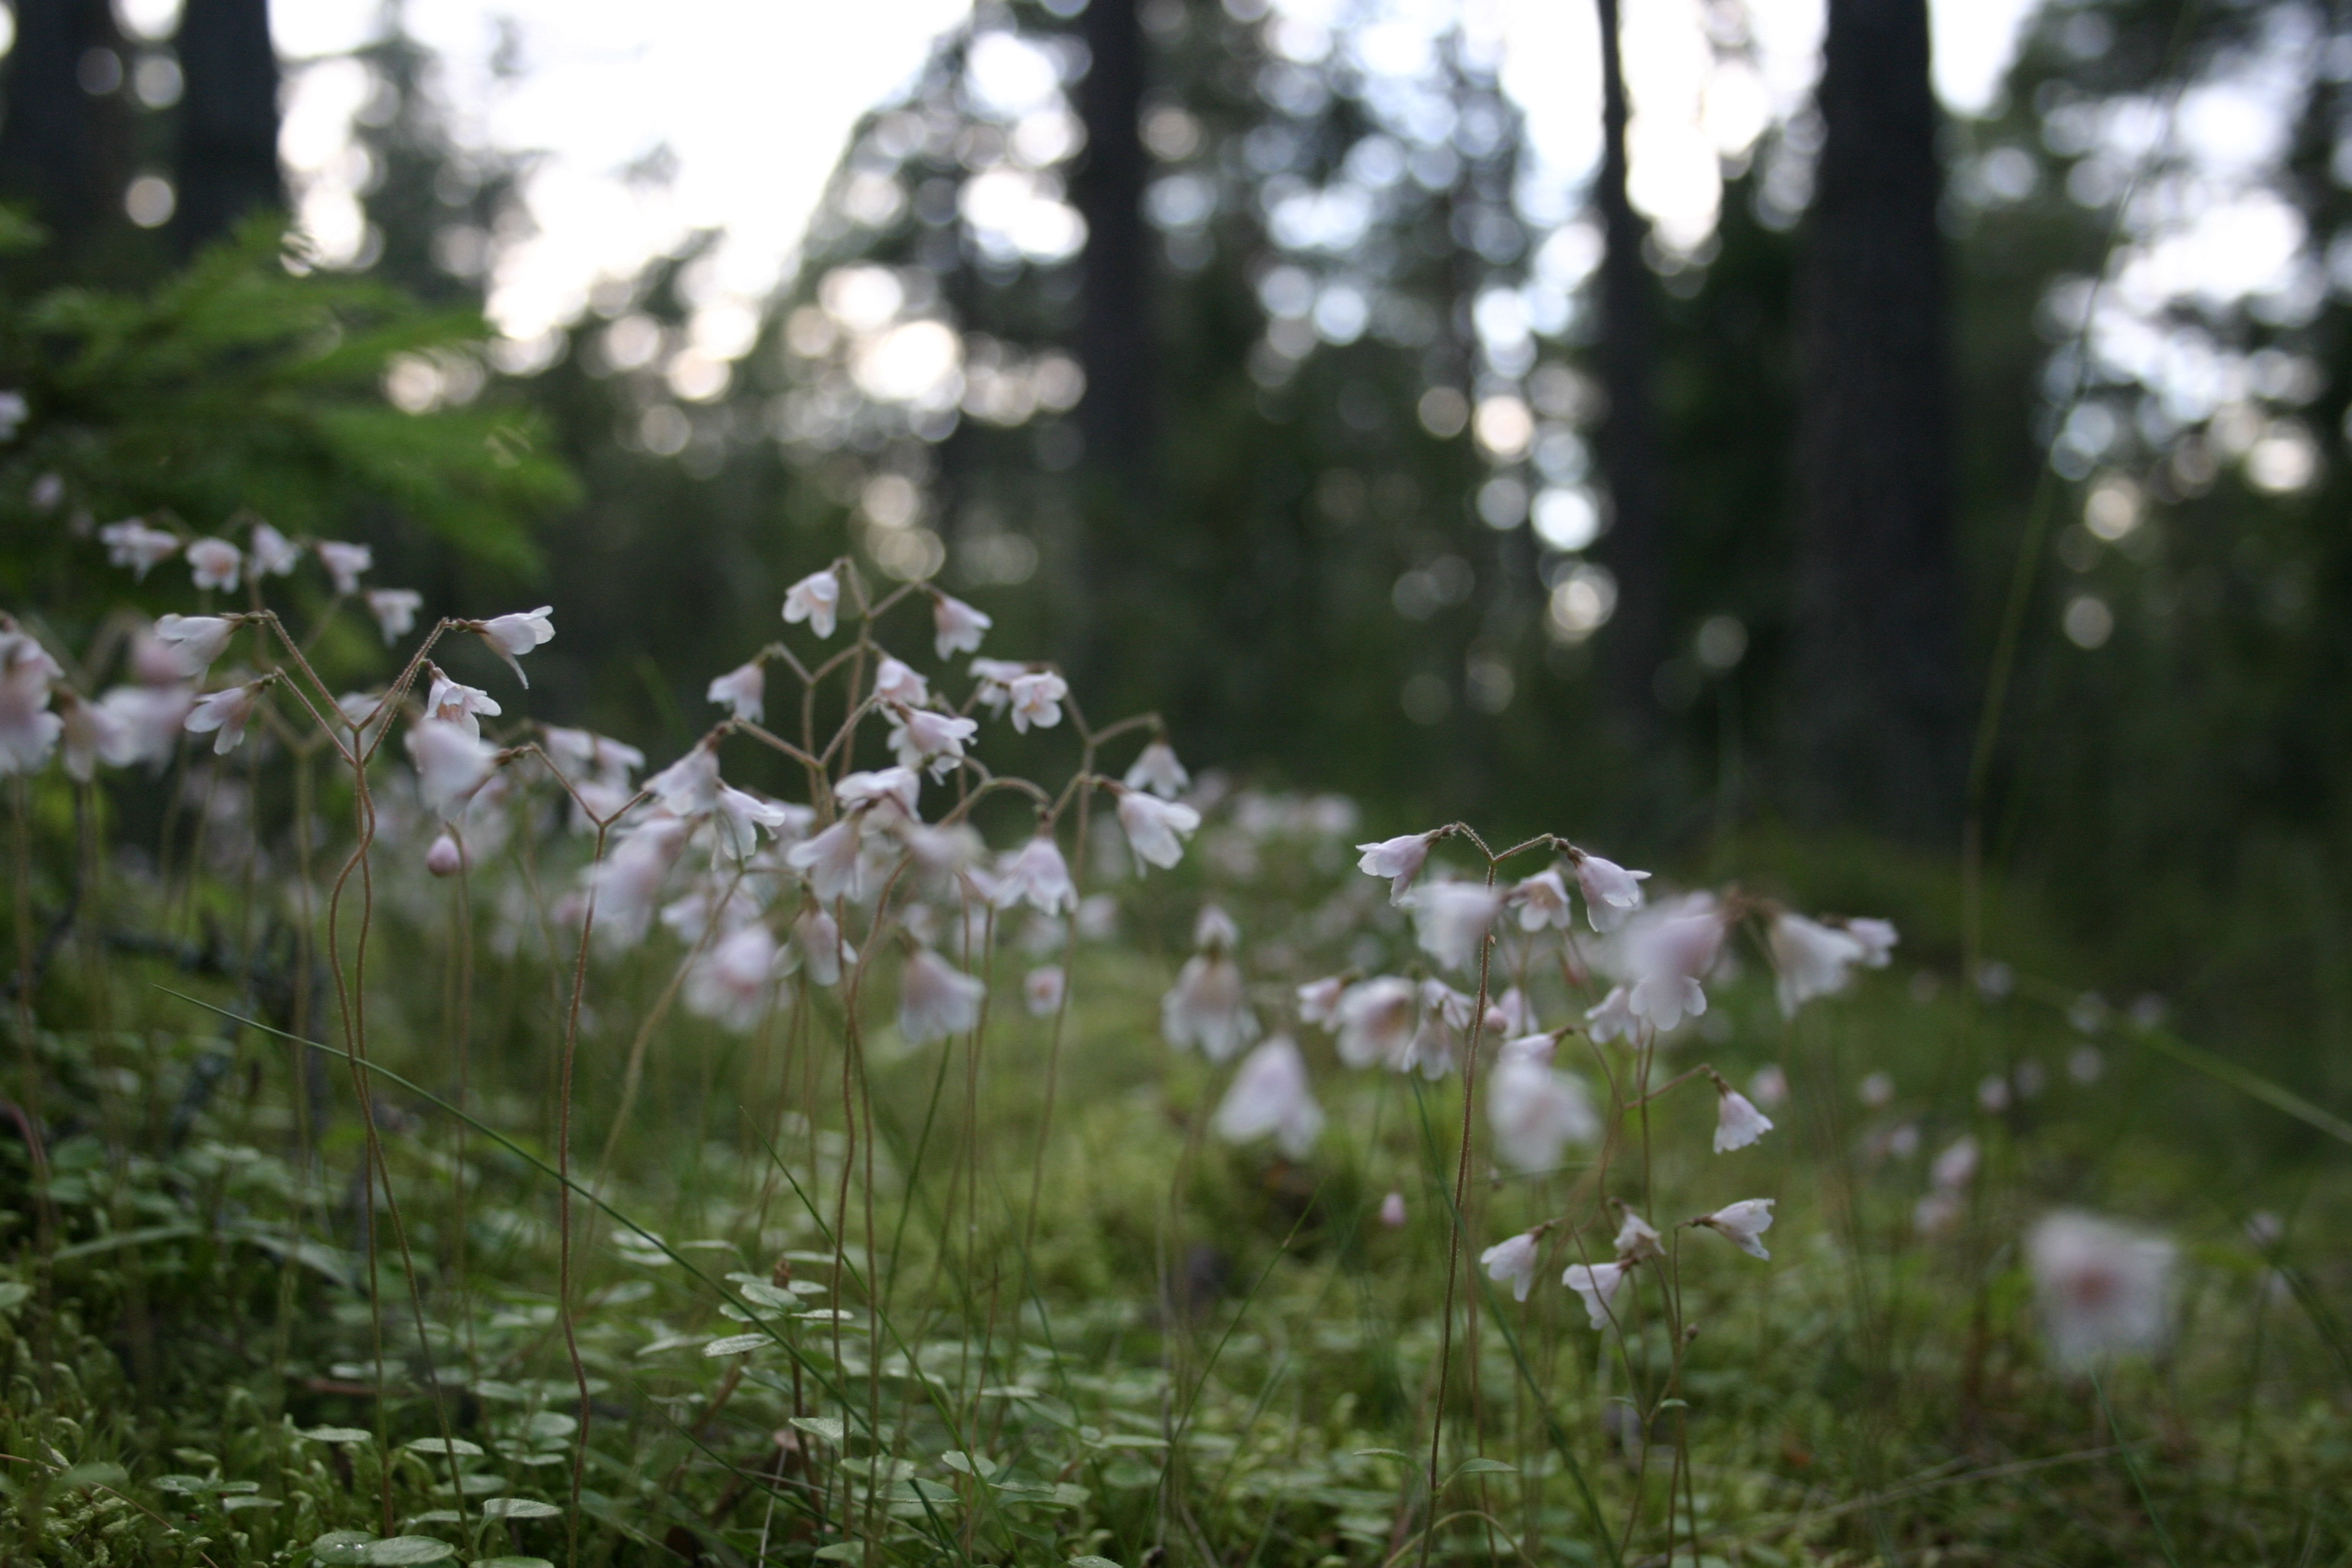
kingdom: Plantae
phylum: Tracheophyta
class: Magnoliopsida
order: Dipsacales
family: Caprifoliaceae
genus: Linnaea
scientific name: Linnaea borealis
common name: Twinflower
